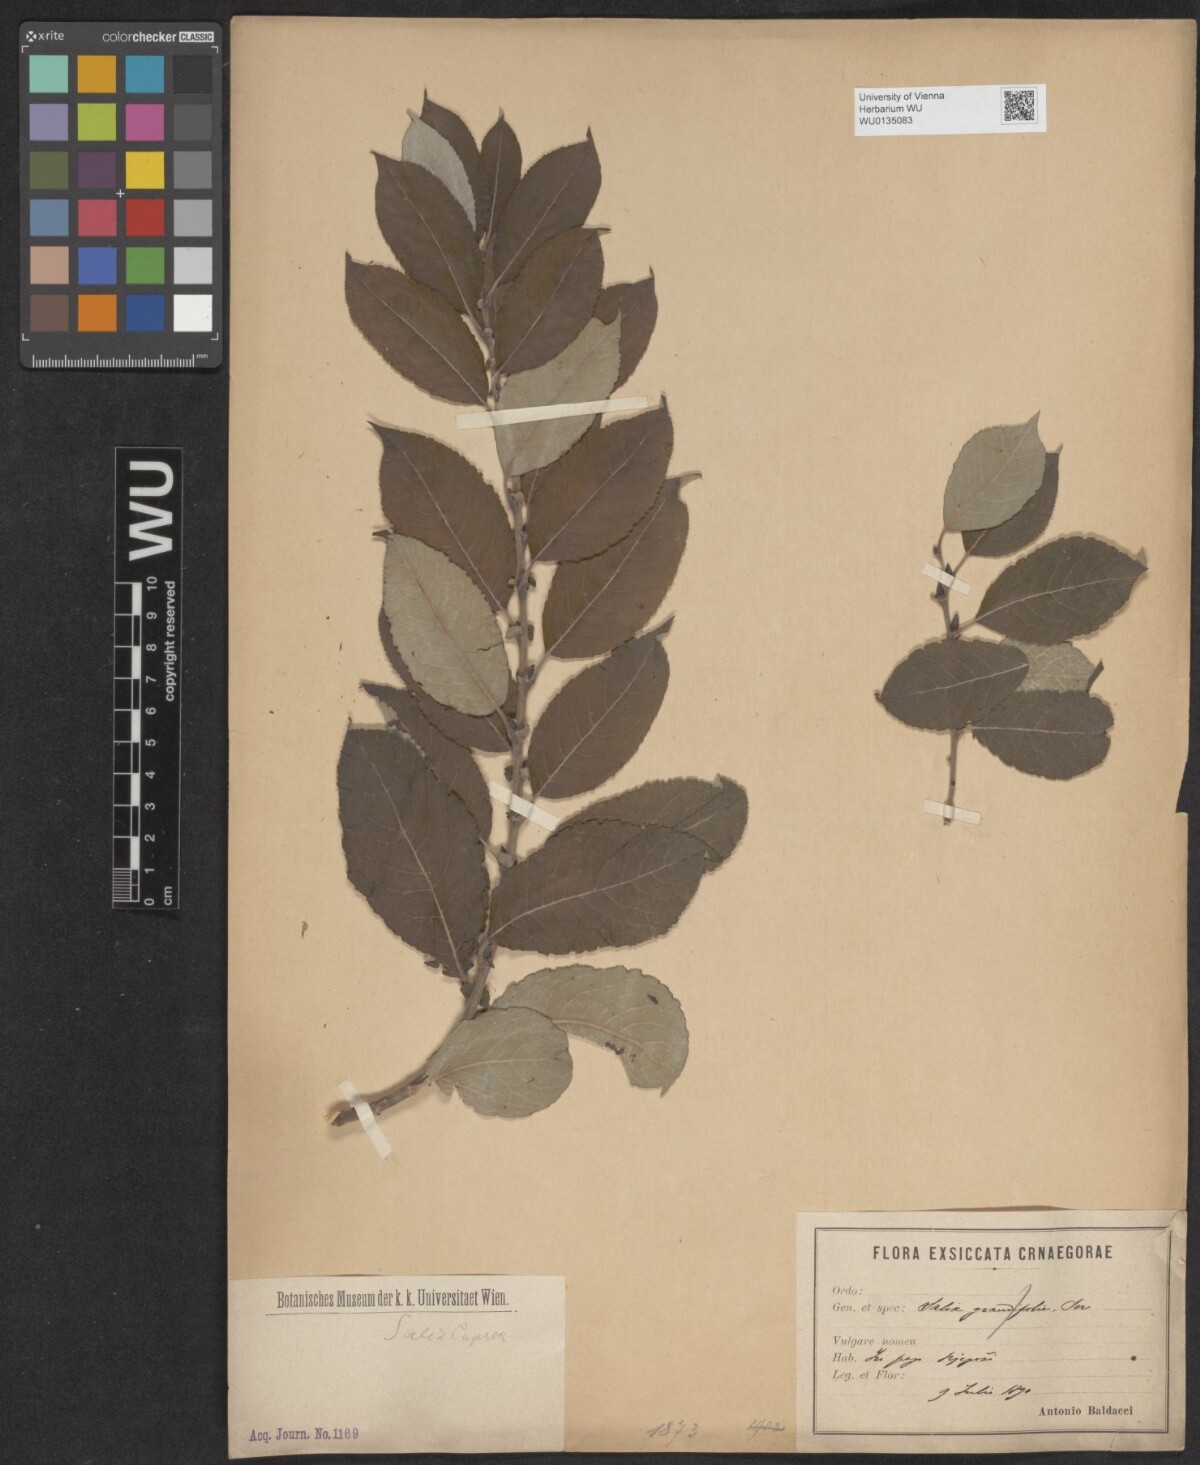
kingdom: Plantae
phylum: Tracheophyta
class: Magnoliopsida
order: Malpighiales
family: Salicaceae
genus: Salix
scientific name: Salix caprea
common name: Goat willow
